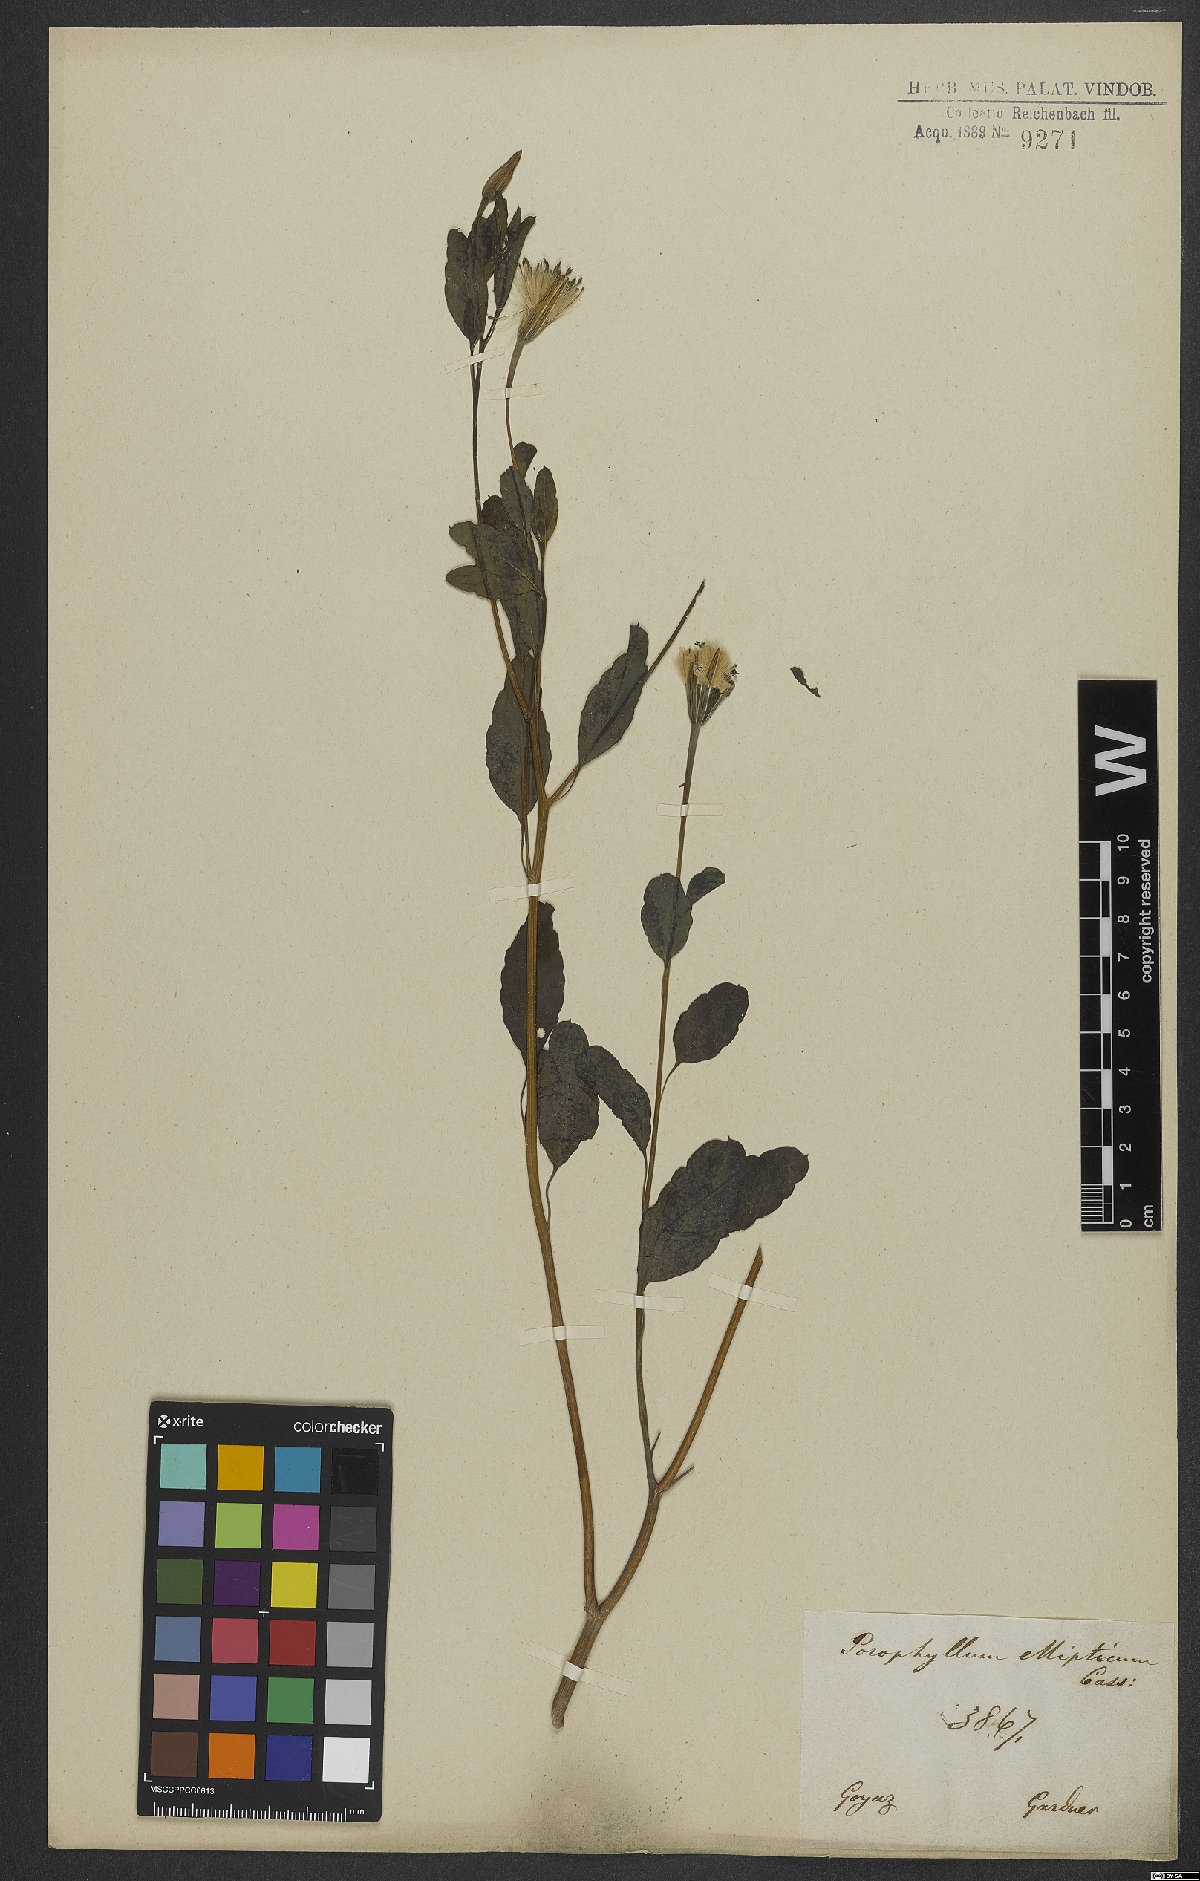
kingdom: Plantae
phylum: Tracheophyta
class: Magnoliopsida
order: Asterales
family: Asteraceae
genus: Porophyllum
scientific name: Porophyllum ruderale
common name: Yerba porosa
